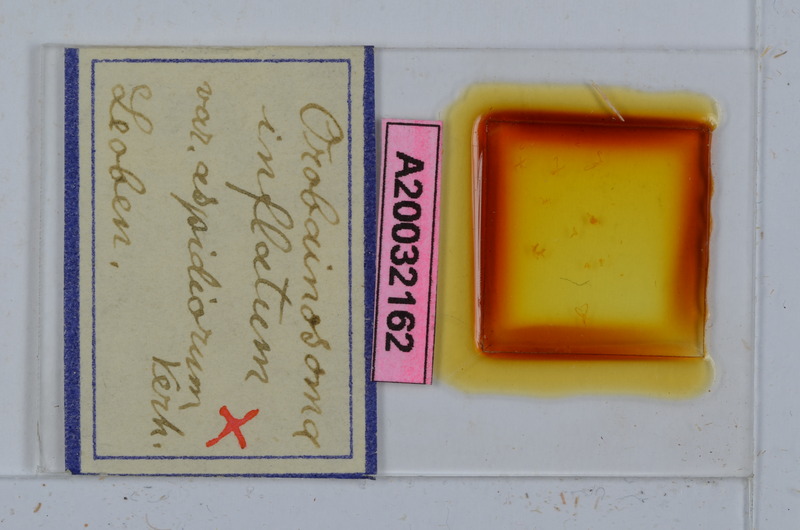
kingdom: Animalia
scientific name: Animalia
